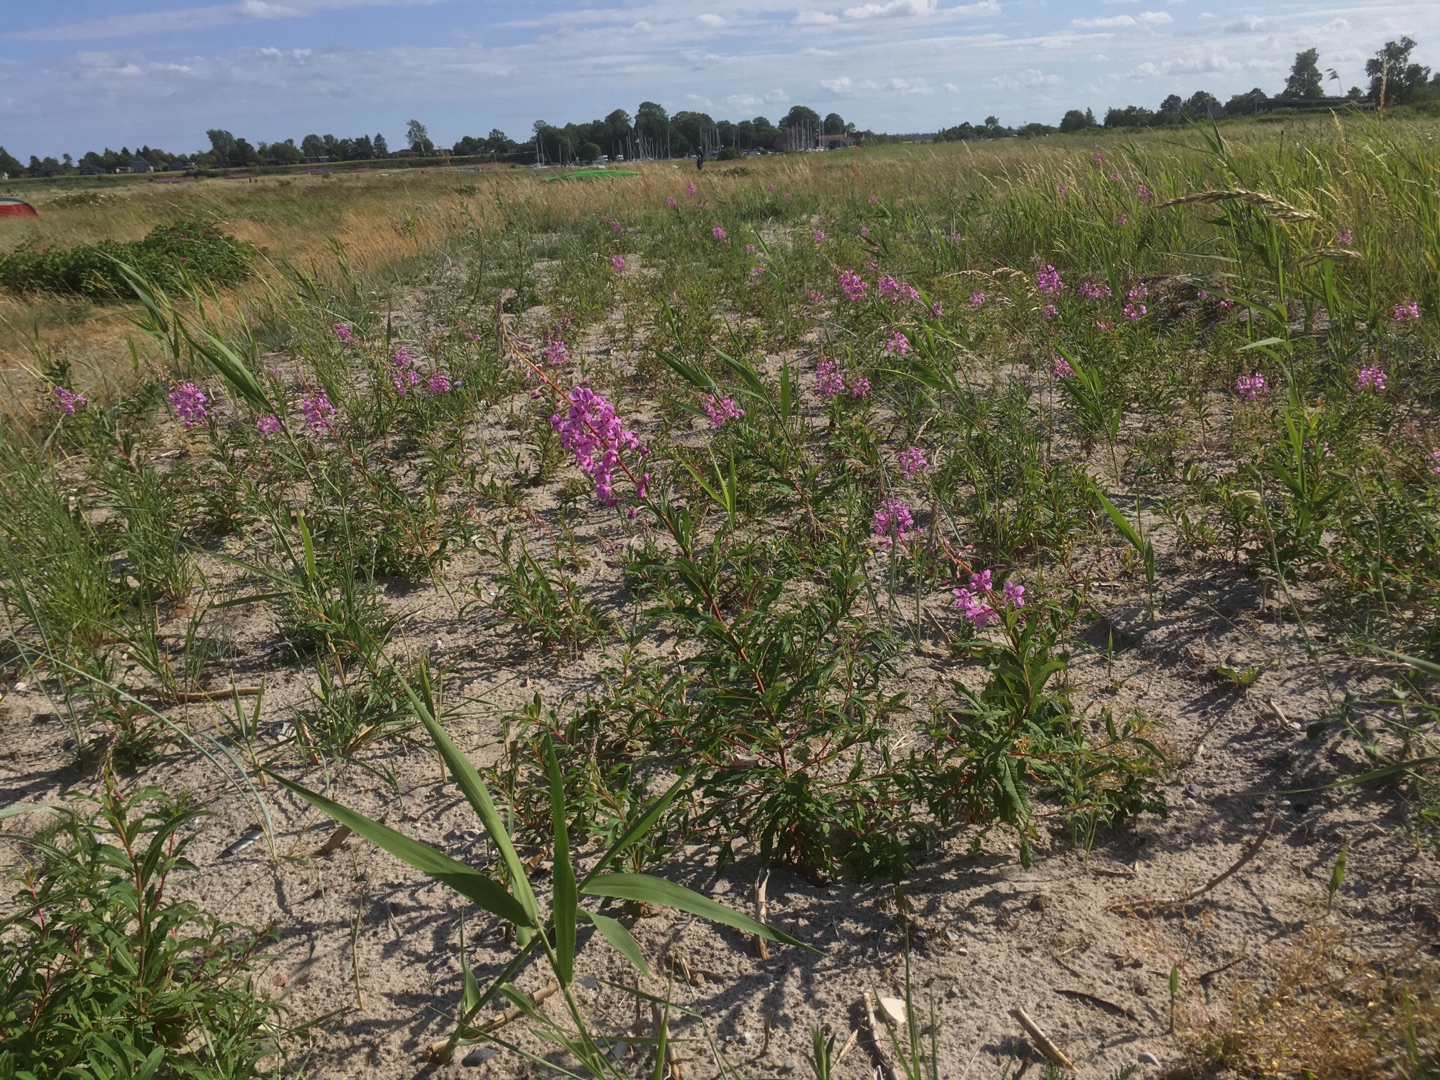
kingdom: Plantae
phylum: Tracheophyta
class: Magnoliopsida
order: Myrtales
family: Onagraceae
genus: Chamaenerion
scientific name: Chamaenerion angustifolium
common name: Gederams
